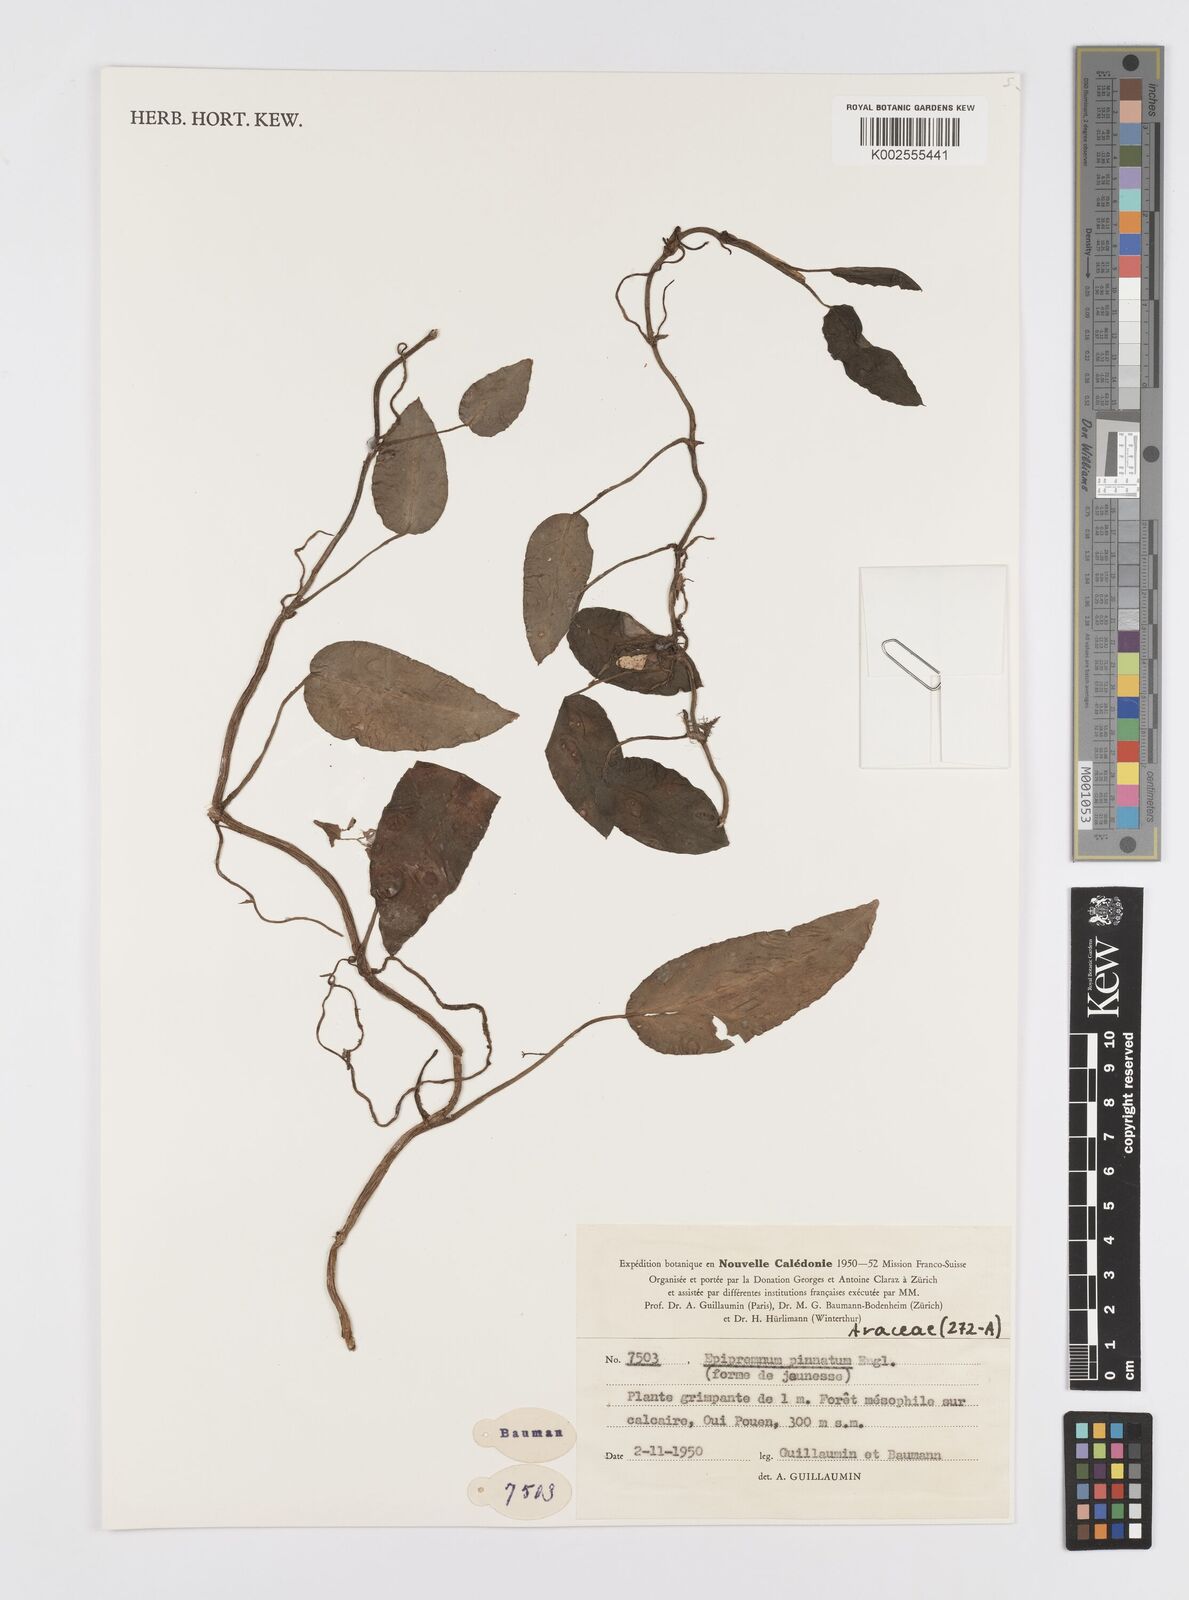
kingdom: Plantae
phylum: Tracheophyta
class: Liliopsida
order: Alismatales
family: Araceae
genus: Epipremnum
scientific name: Epipremnum pinnatum
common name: Centipede tongavine
